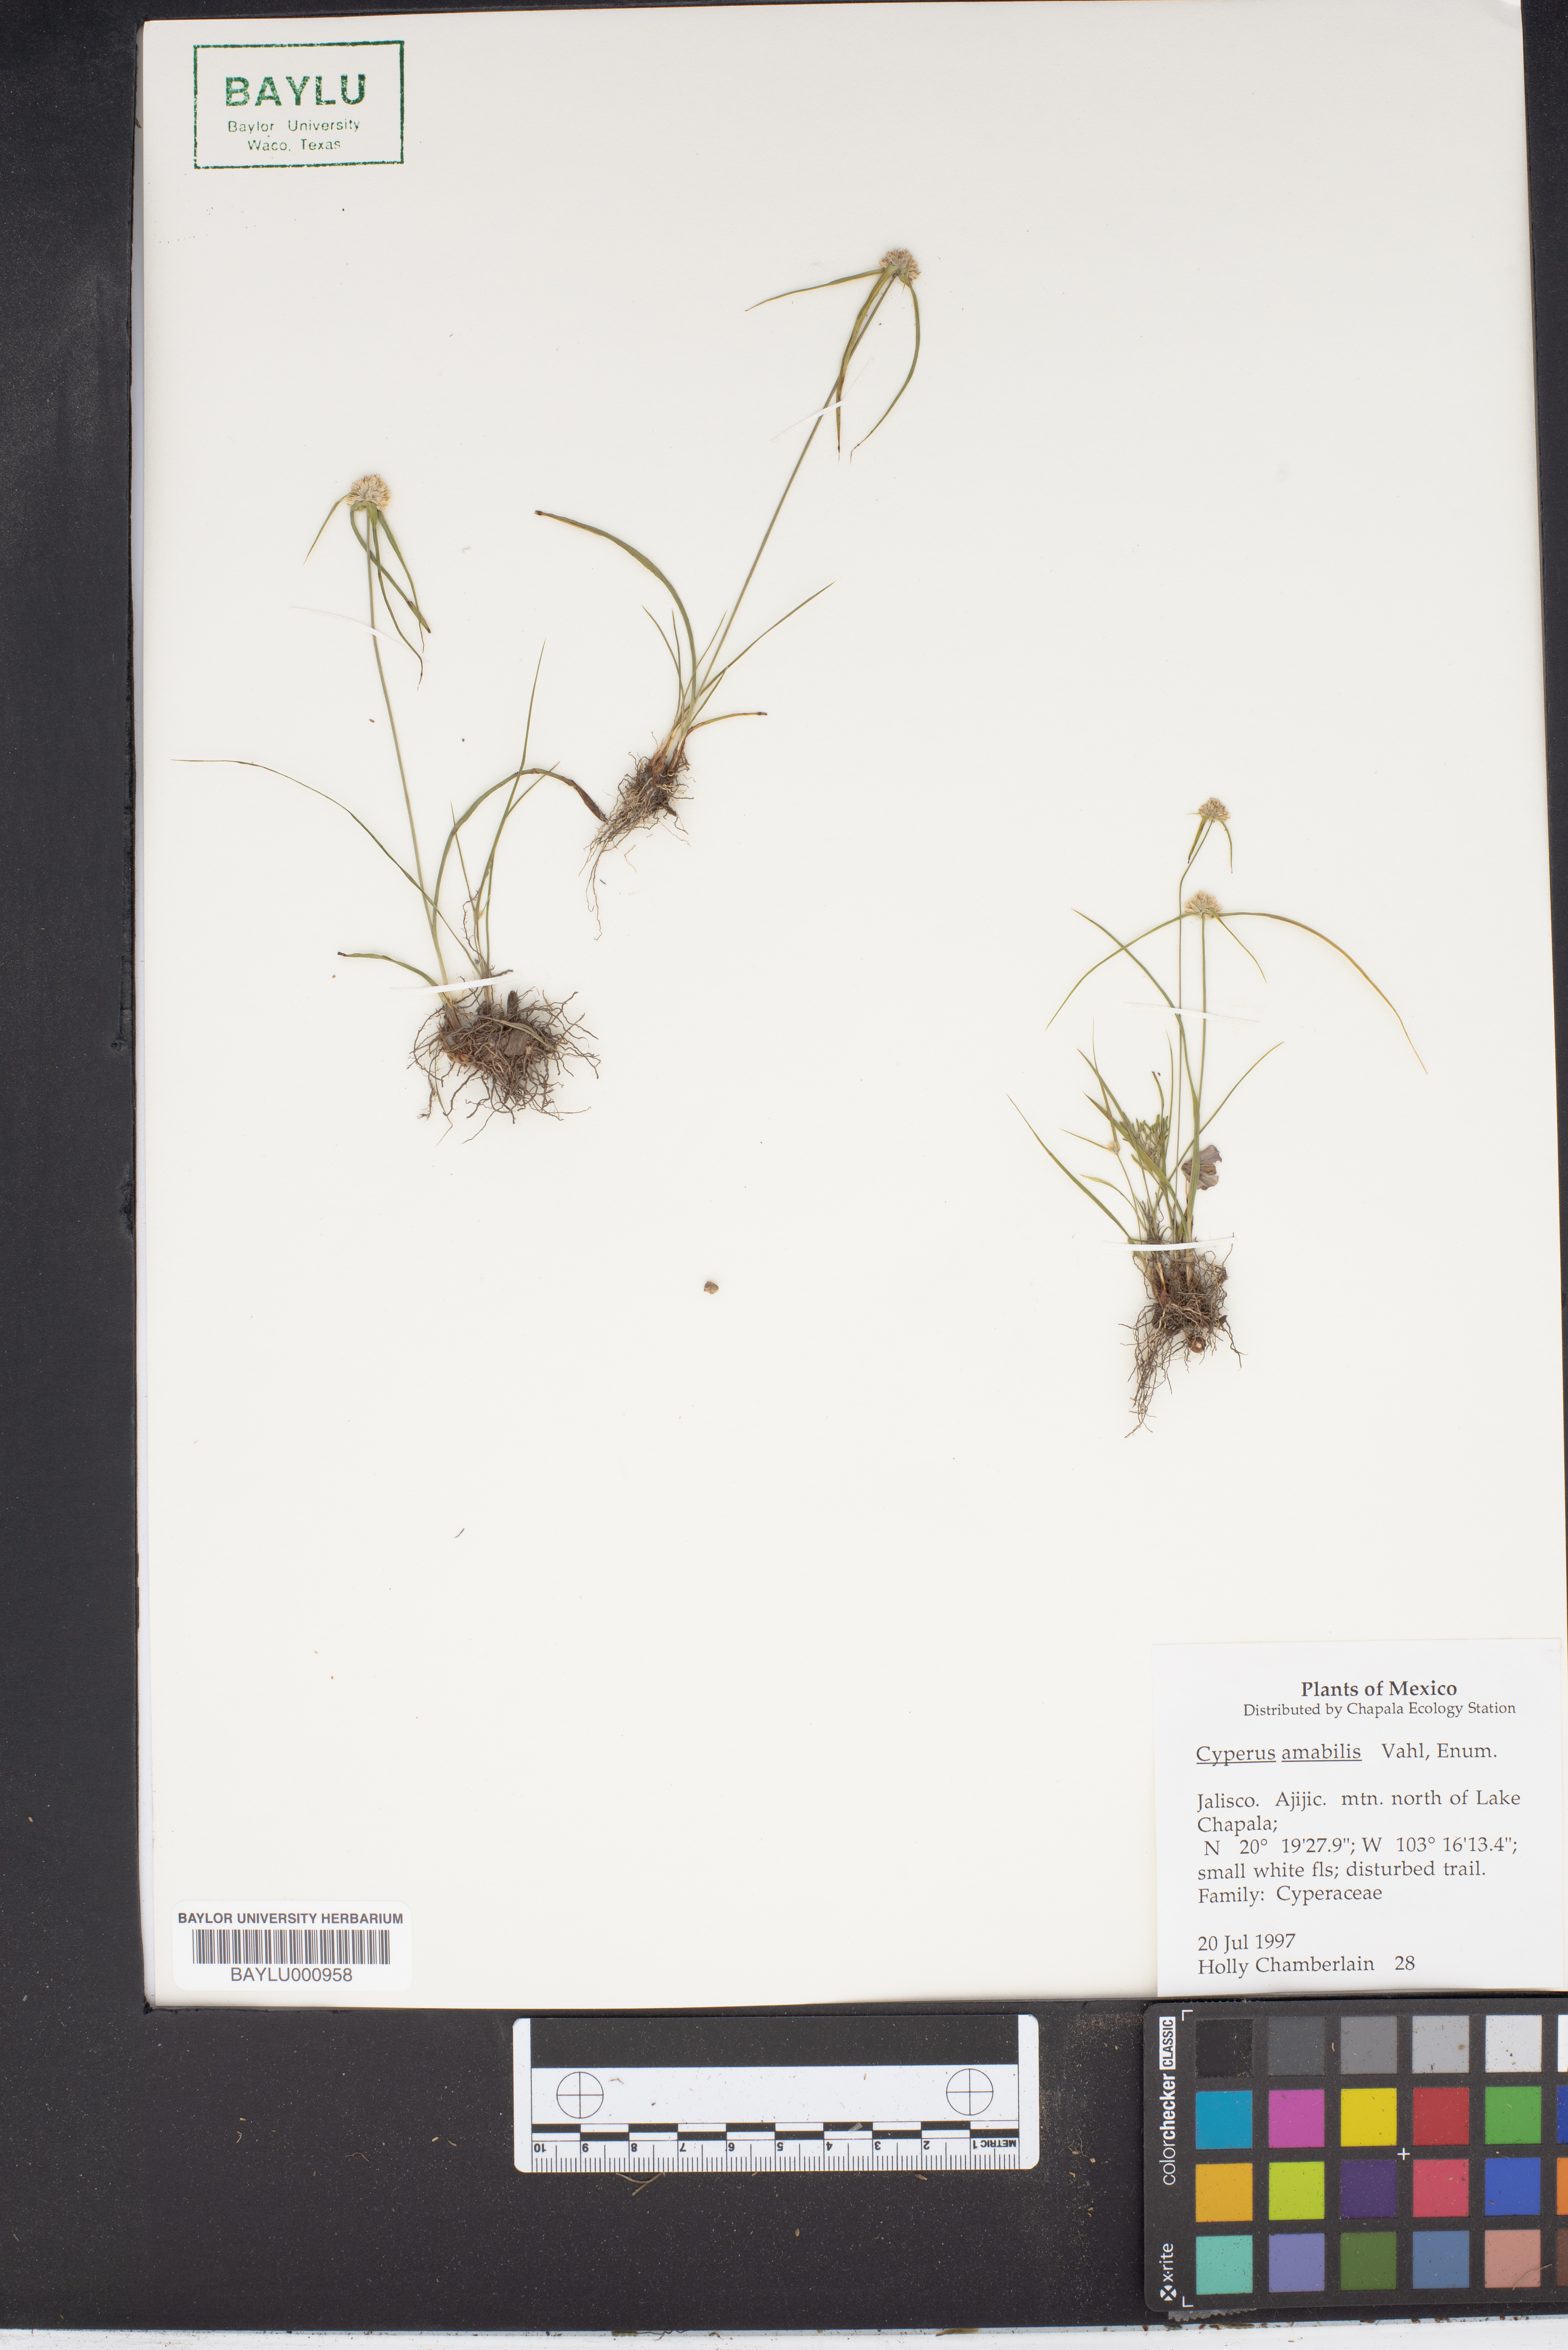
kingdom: Plantae
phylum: Tracheophyta
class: Liliopsida
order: Poales
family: Cyperaceae
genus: Cyperus
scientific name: Cyperus amabilis
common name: Foothill flat sedge
